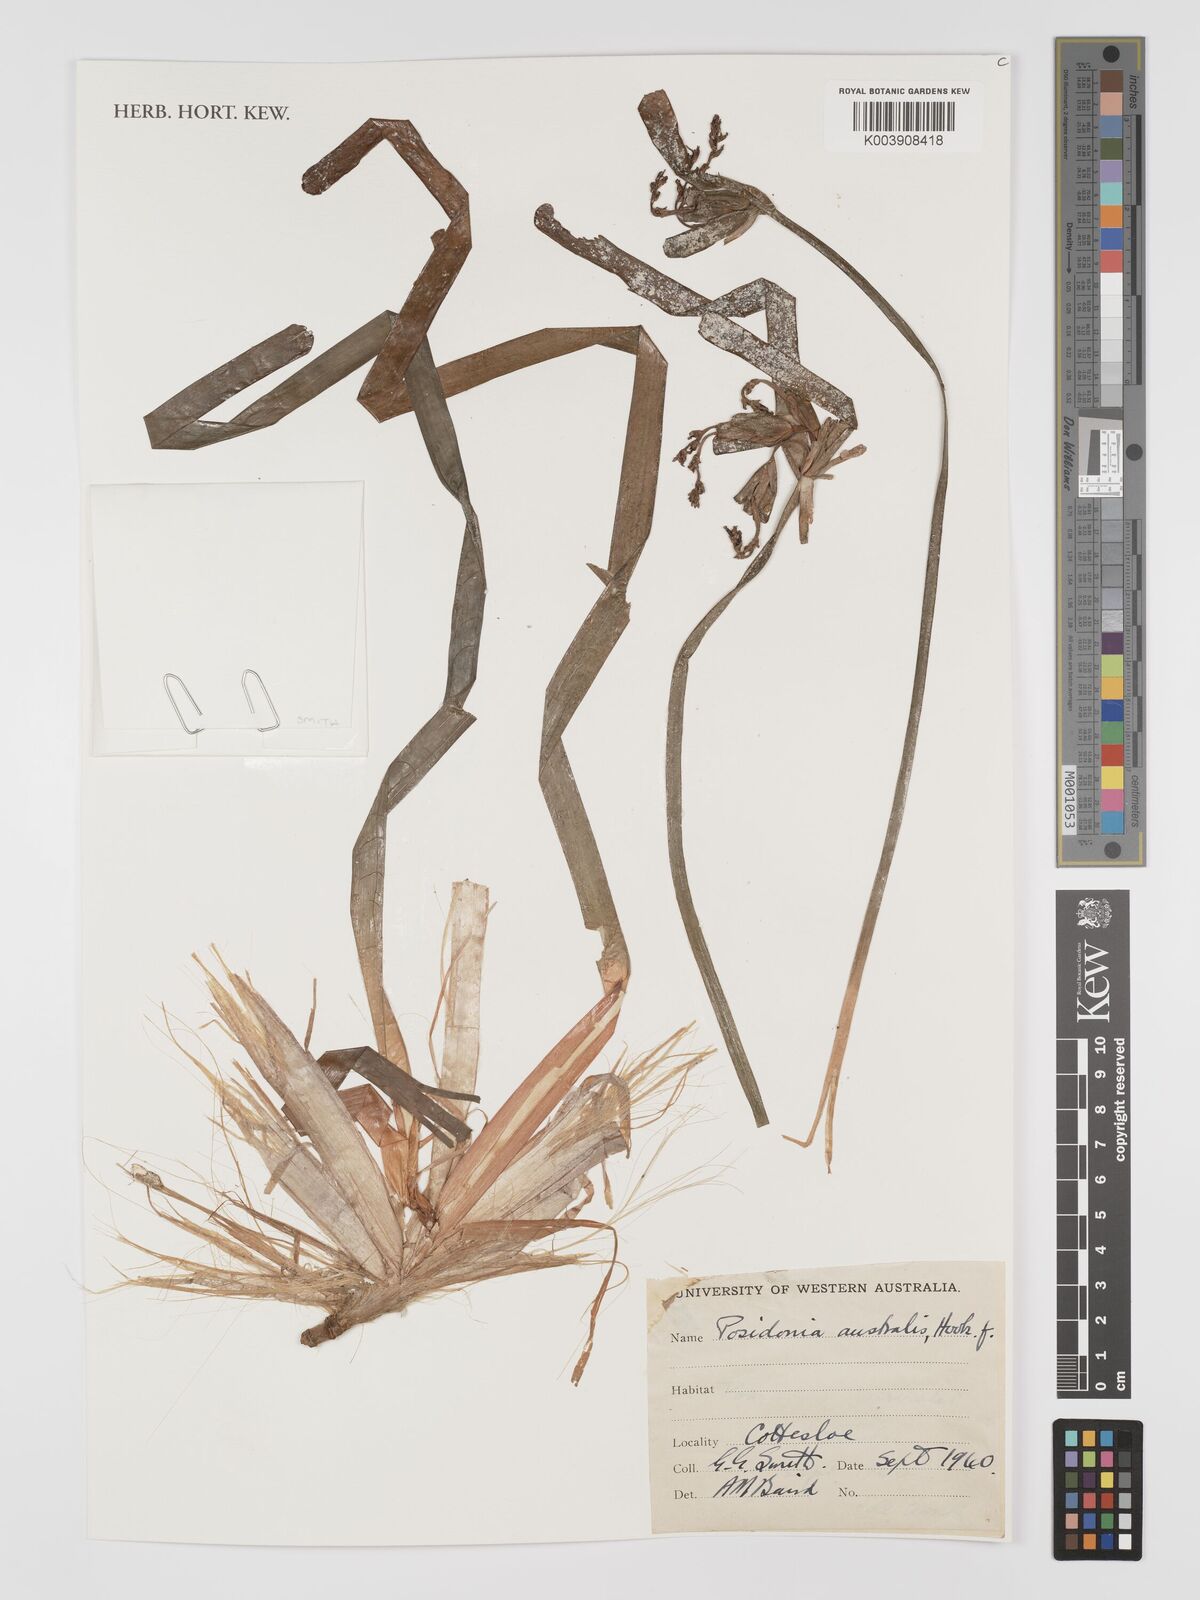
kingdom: Plantae
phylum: Tracheophyta
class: Liliopsida
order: Alismatales
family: Posidoniaceae
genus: Posidonia
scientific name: Posidonia australis
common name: Species code: pa
